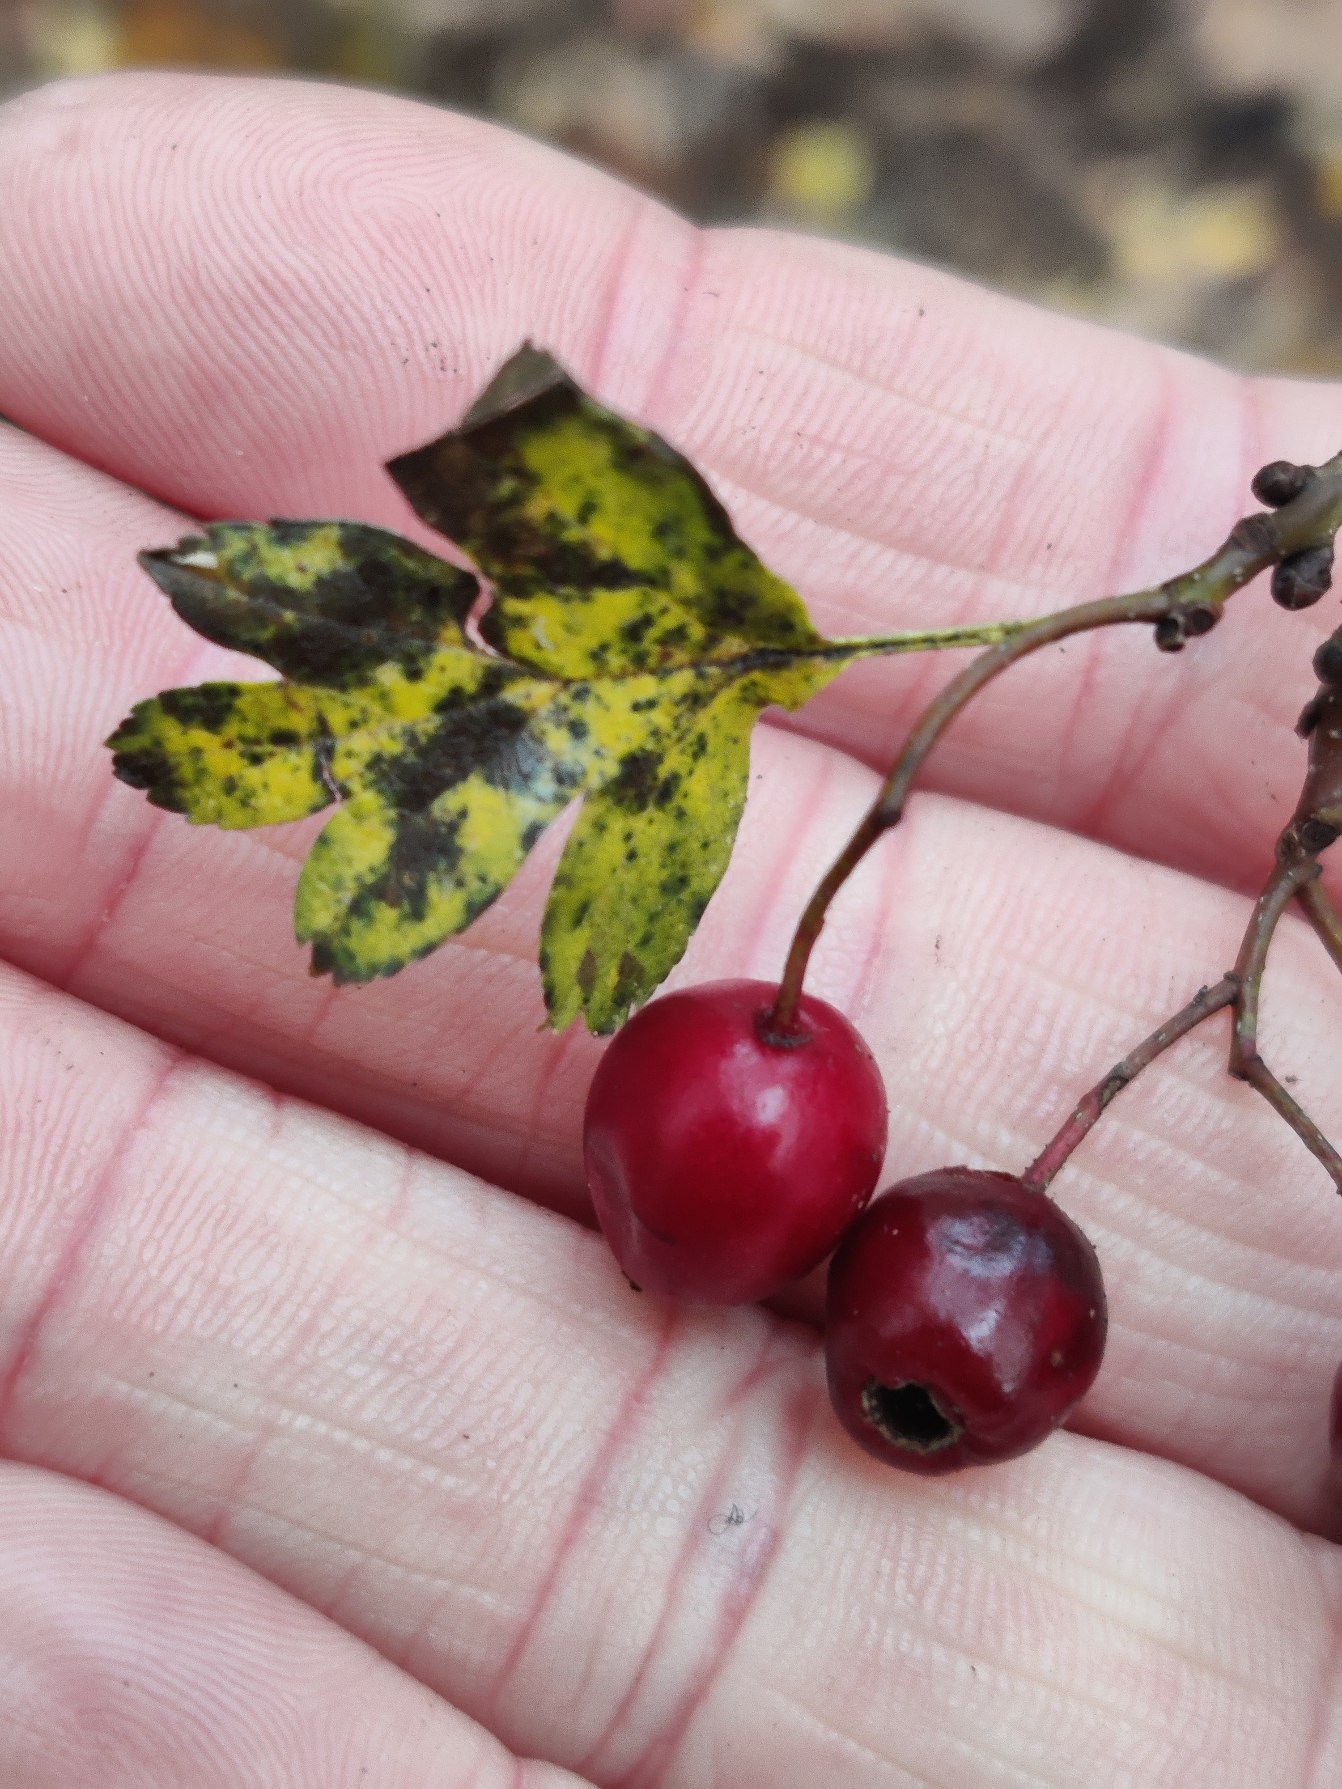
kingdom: Plantae
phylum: Tracheophyta
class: Magnoliopsida
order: Rosales
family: Rosaceae
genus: Crataegus
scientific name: Crataegus monogyna
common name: Engriflet hvidtjørn
